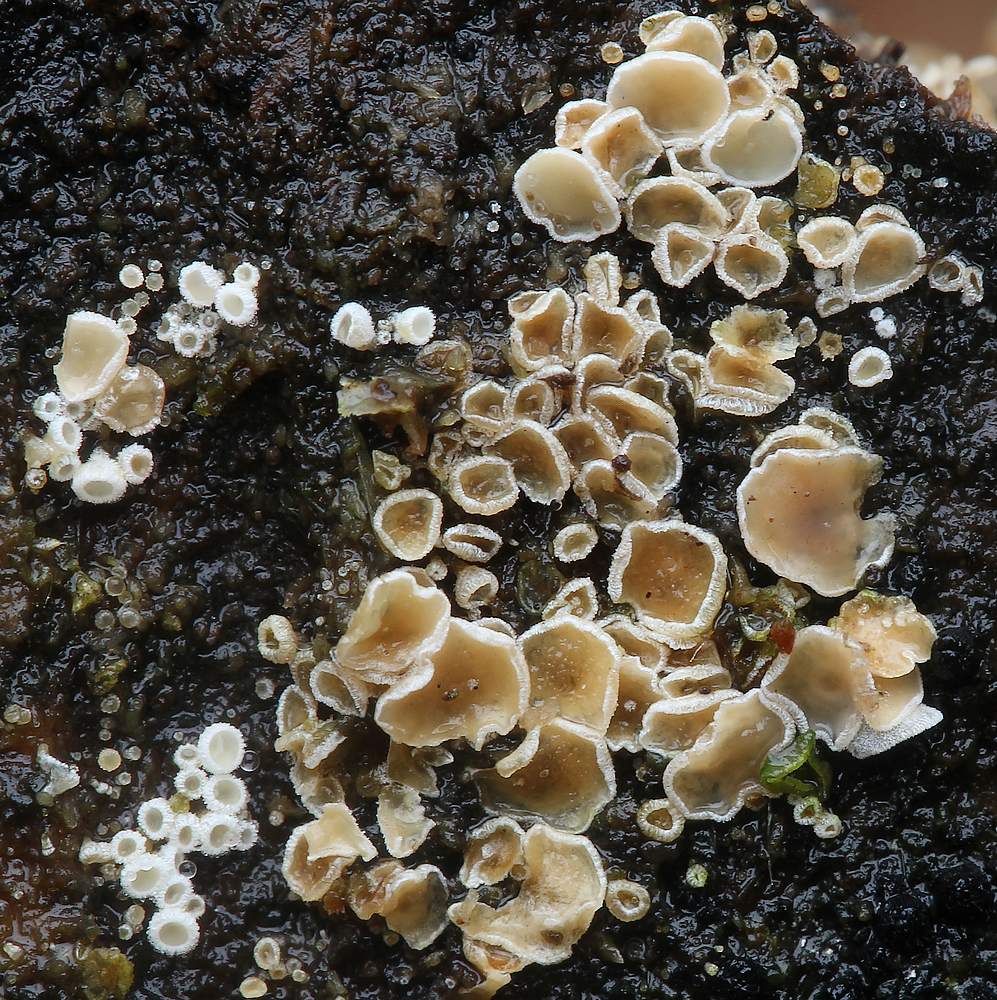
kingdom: Fungi
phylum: Ascomycota
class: Leotiomycetes
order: Helotiales
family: Lachnaceae
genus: Lachnum
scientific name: Lachnum
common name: frynseskive
